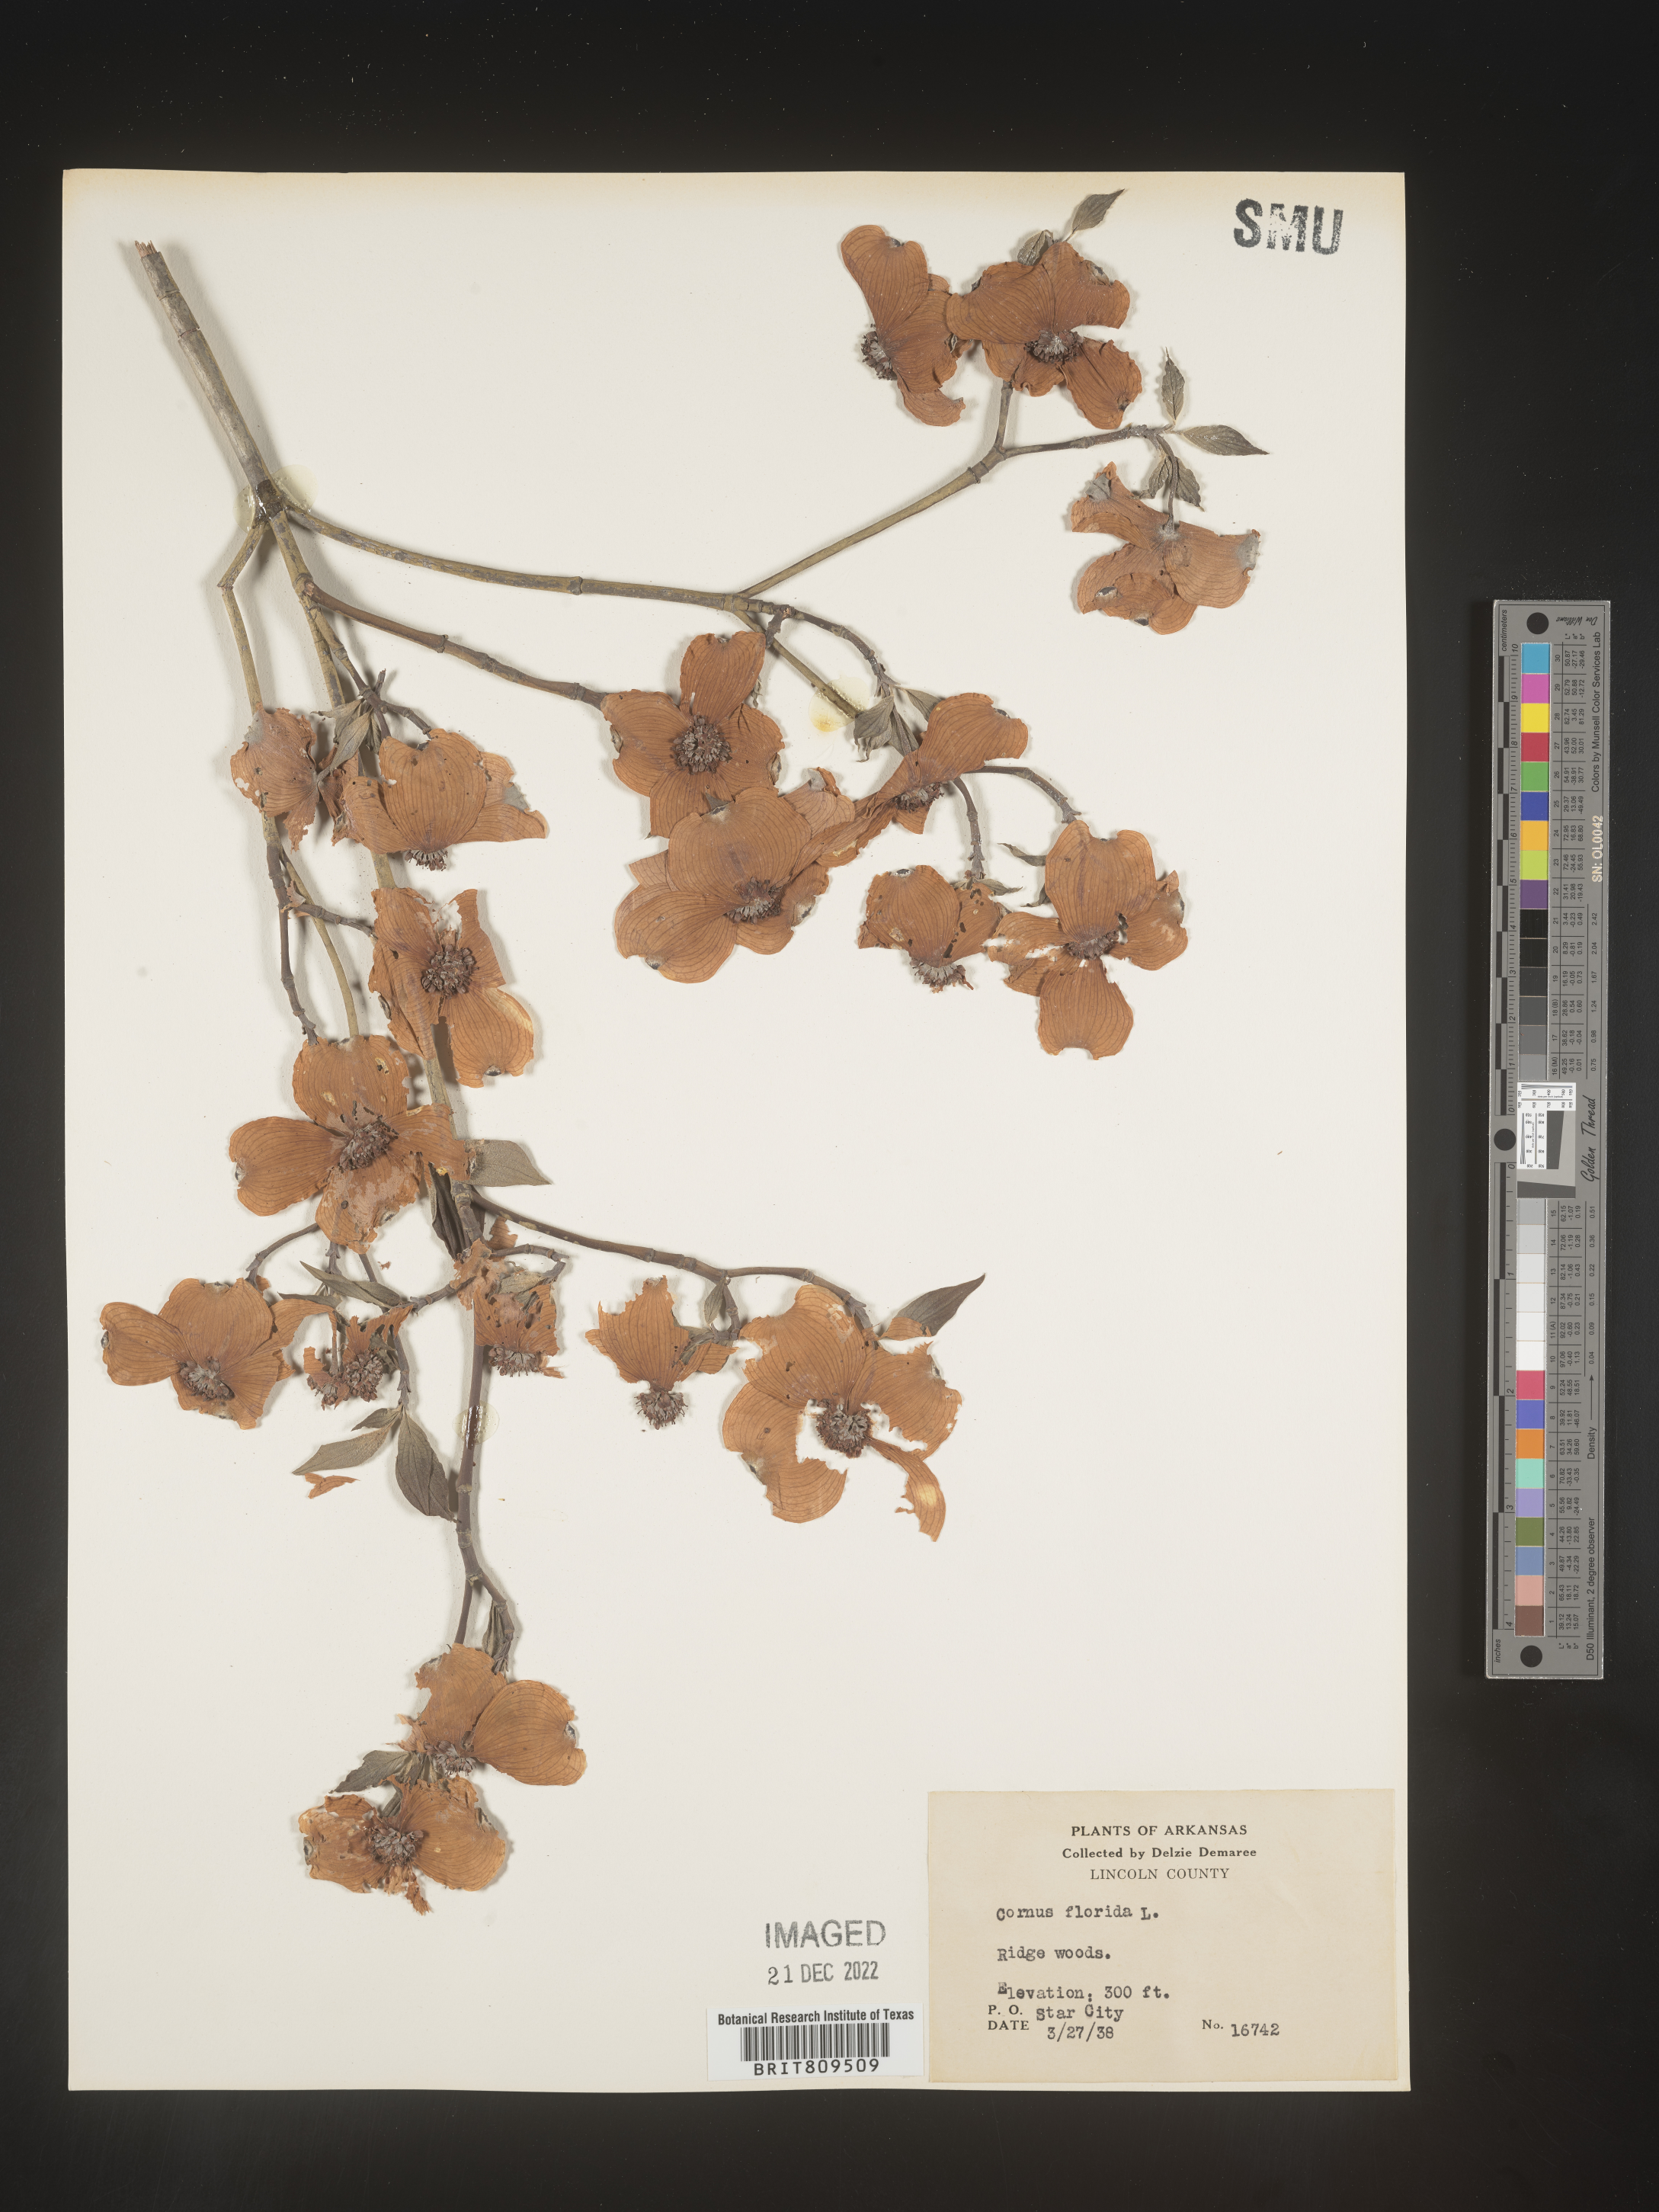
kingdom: Plantae
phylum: Tracheophyta
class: Magnoliopsida
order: Cornales
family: Cornaceae
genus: Cornus
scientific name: Cornus florida
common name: Flowering dogwood
